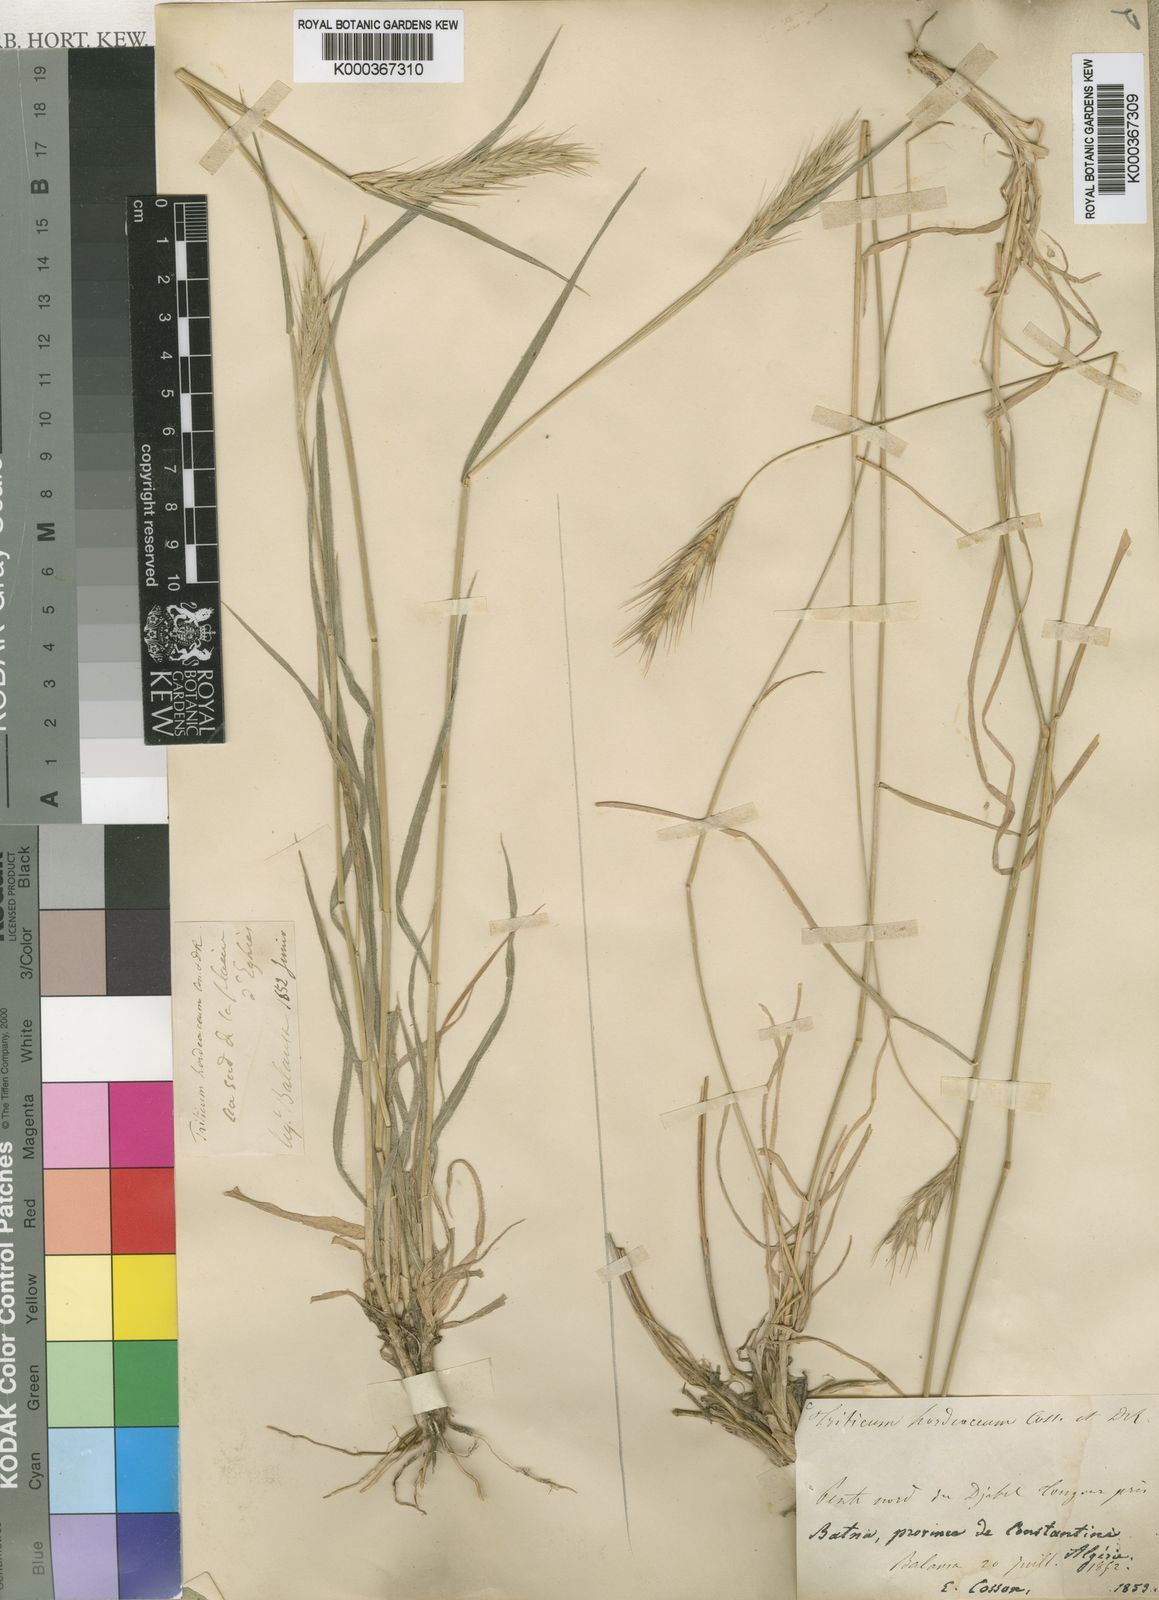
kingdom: Plantae
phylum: Tracheophyta
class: Liliopsida
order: Poales
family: Poaceae
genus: Dasypyrum
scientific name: Dasypyrum hordeaceum
